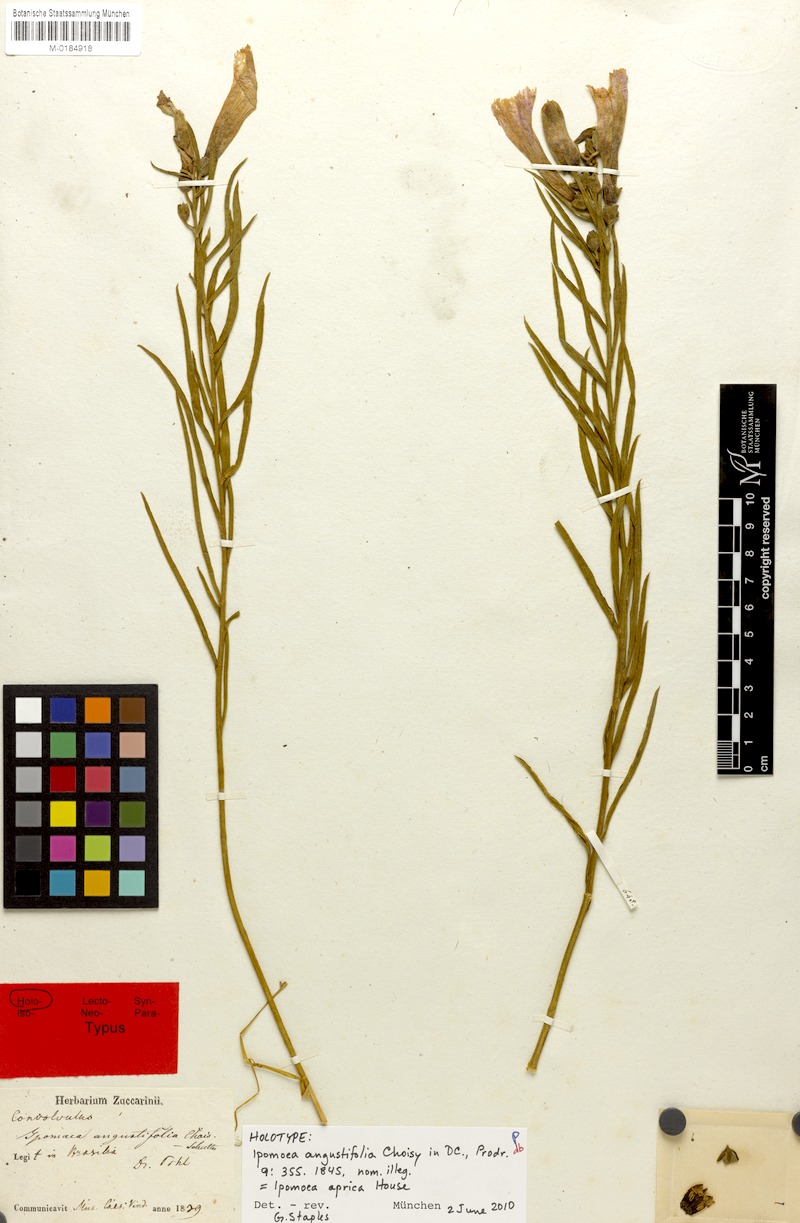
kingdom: Plantae
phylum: Tracheophyta
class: Magnoliopsida
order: Solanales
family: Convolvulaceae
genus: Ipomoea
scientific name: Ipomoea aprica
